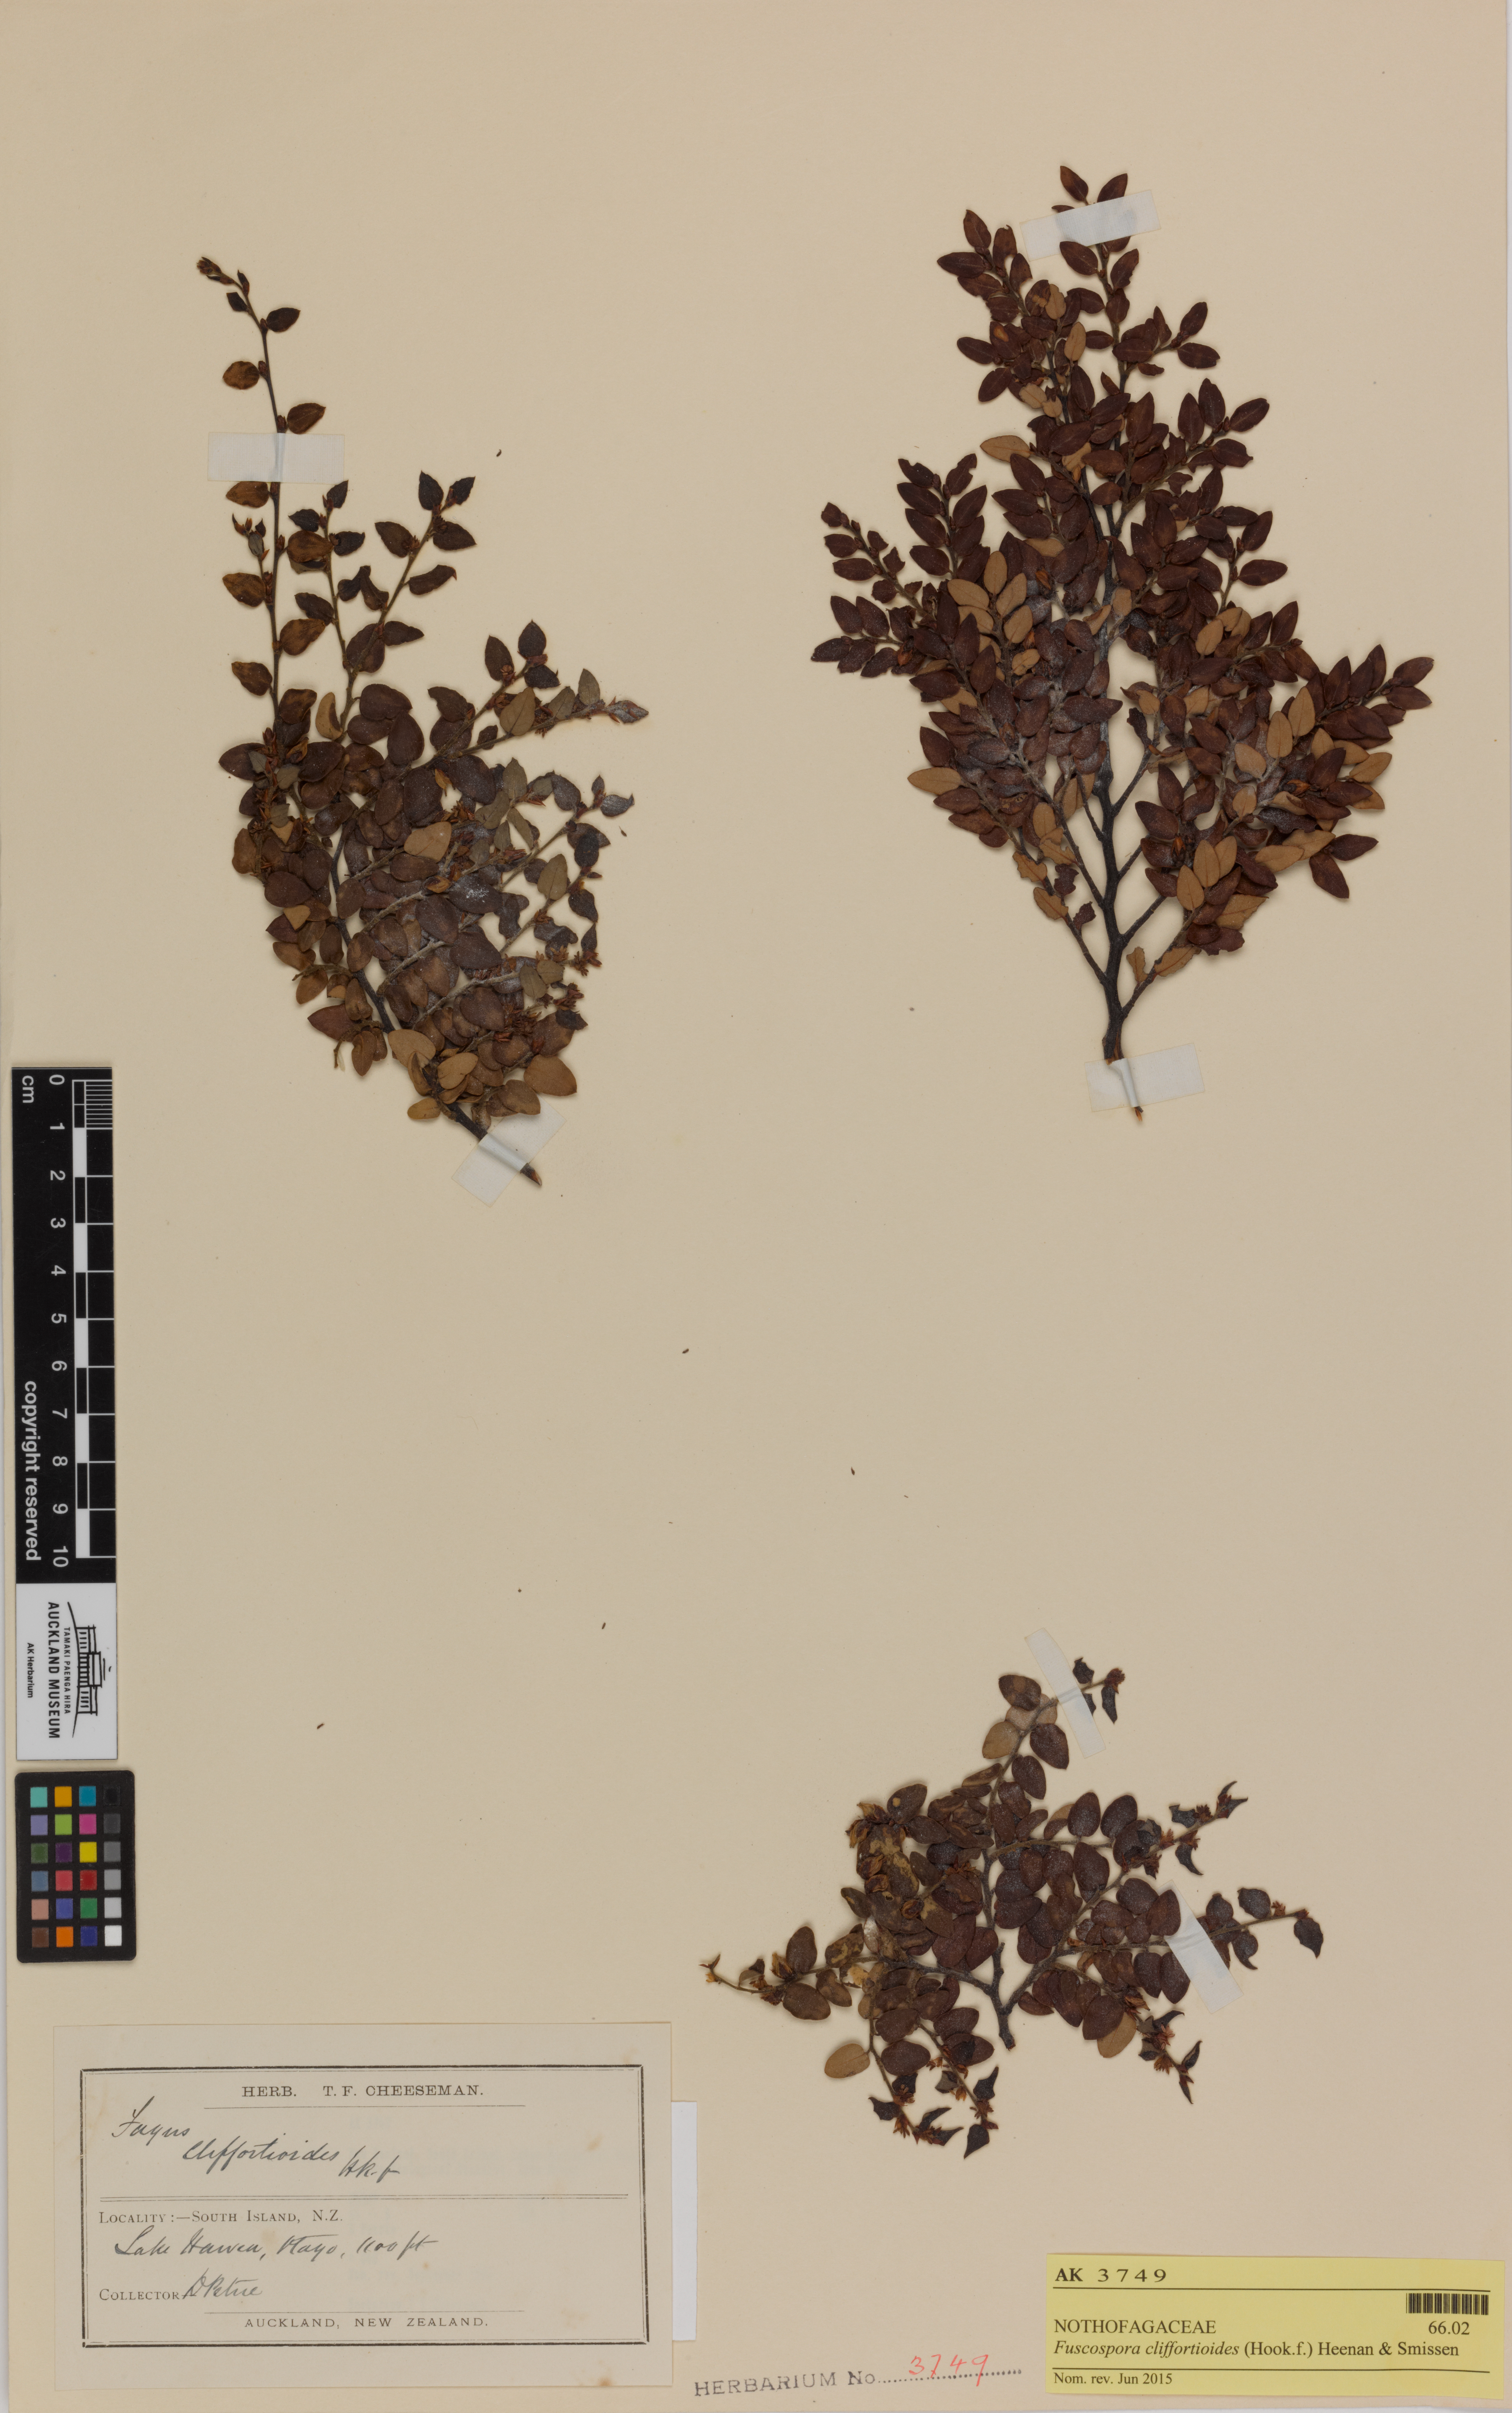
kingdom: Plantae
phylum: Tracheophyta
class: Magnoliopsida
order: Fagales
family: Nothofagaceae
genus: Nothofagus
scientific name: Nothofagus cliffortioides
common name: Mountain beech
